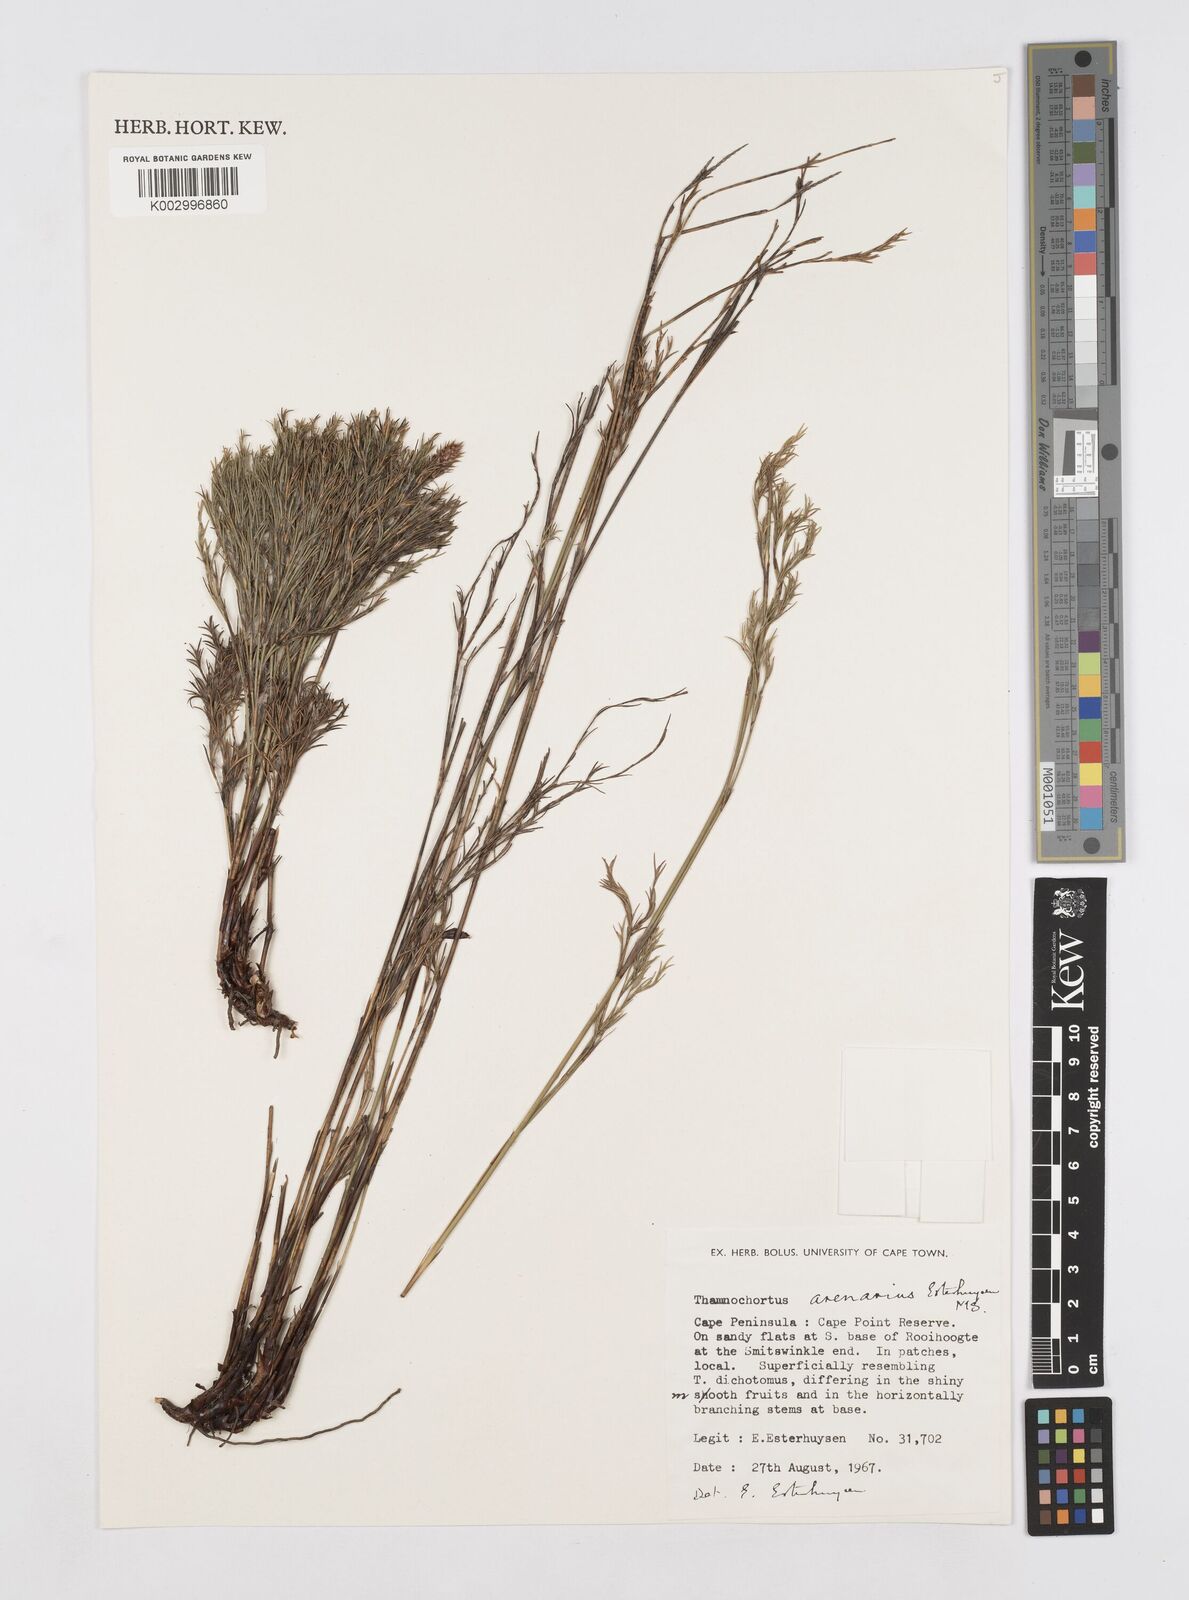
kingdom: Plantae
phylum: Tracheophyta
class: Liliopsida
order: Poales
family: Restionaceae
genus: Thamnochortus
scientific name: Thamnochortus arenarius
